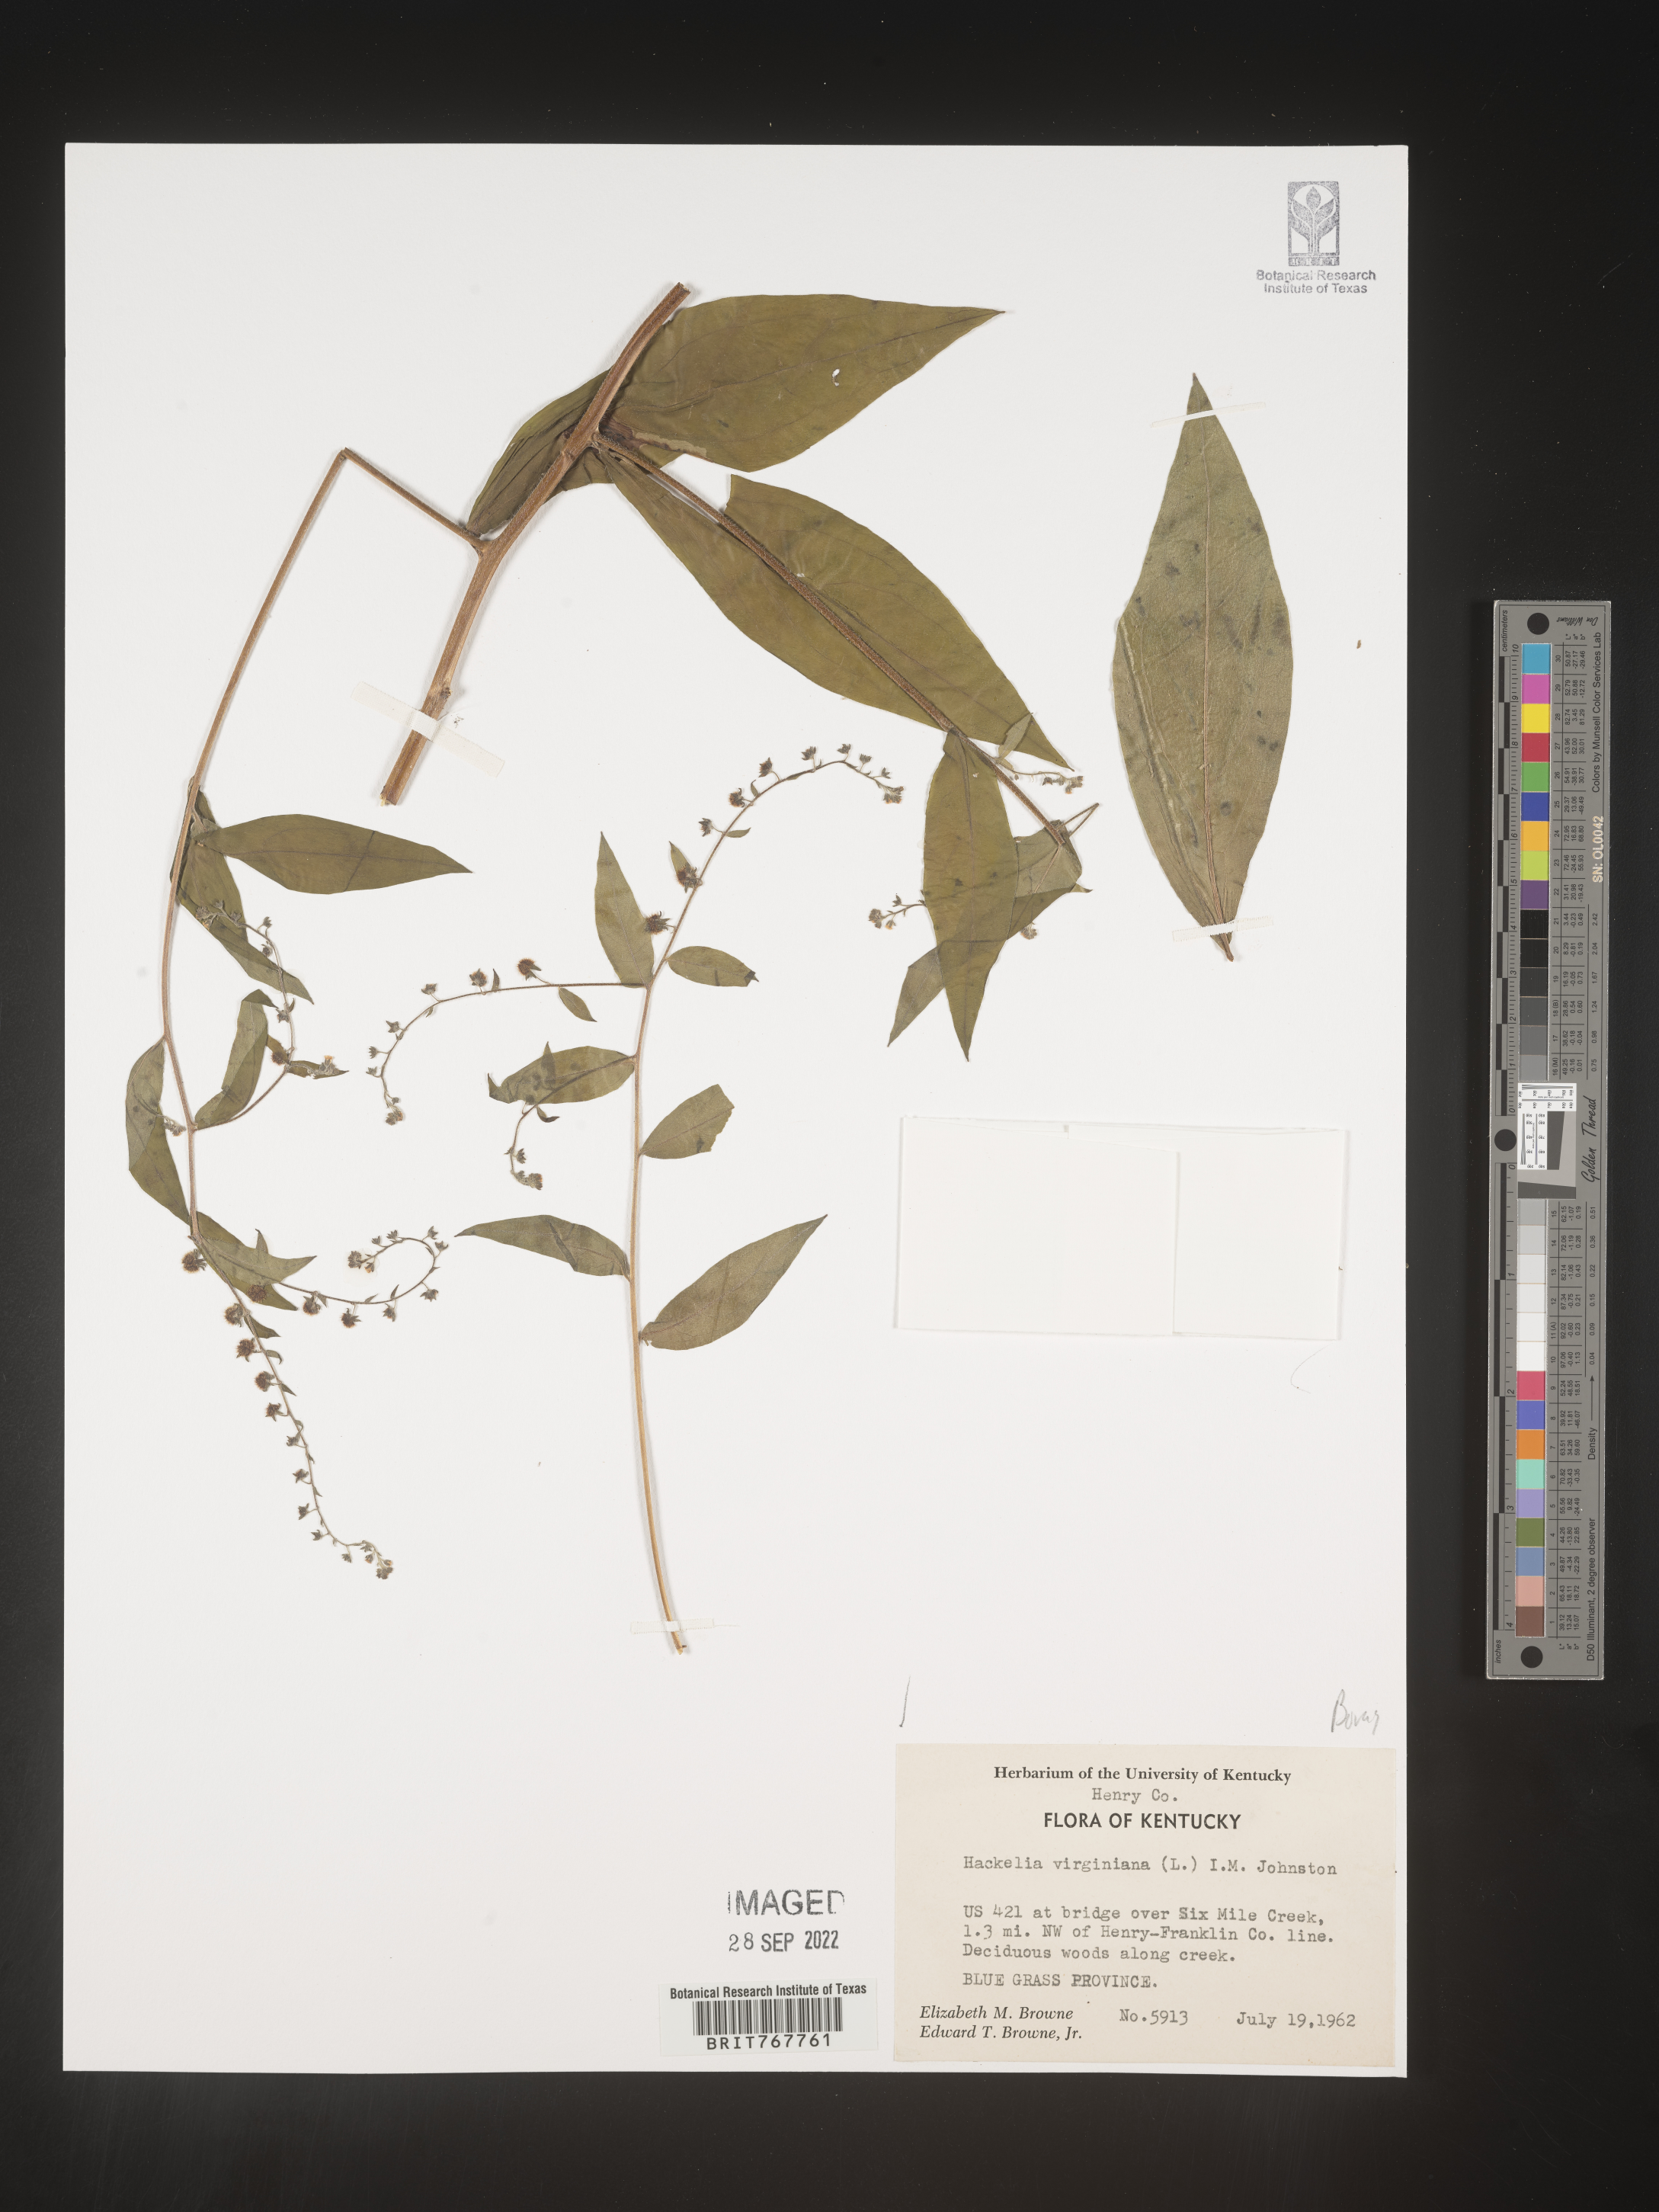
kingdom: Plantae
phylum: Tracheophyta
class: Magnoliopsida
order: Boraginales
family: Boraginaceae
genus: Hackelia
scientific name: Hackelia virginiana
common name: Beggar's-lice
